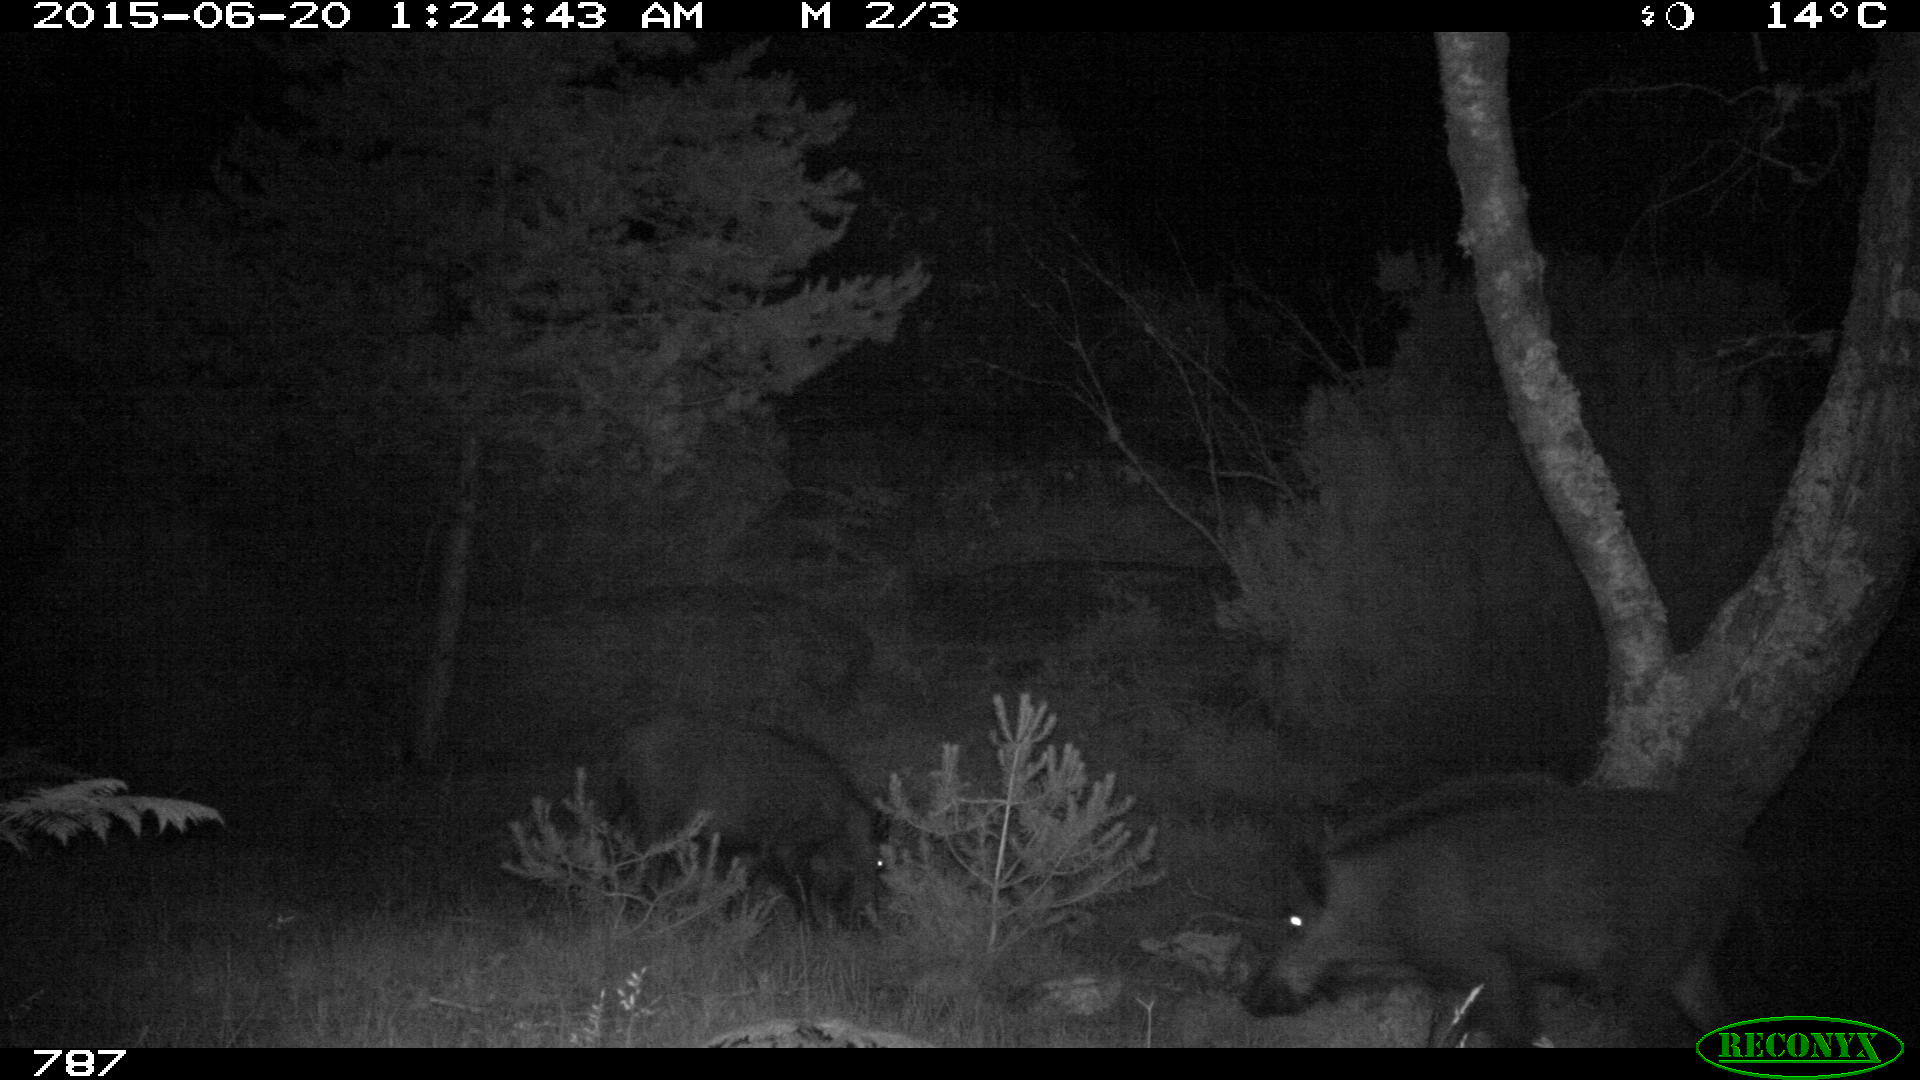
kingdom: Animalia
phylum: Chordata
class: Mammalia
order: Artiodactyla
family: Suidae
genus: Sus
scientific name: Sus scrofa
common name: Wild boar
